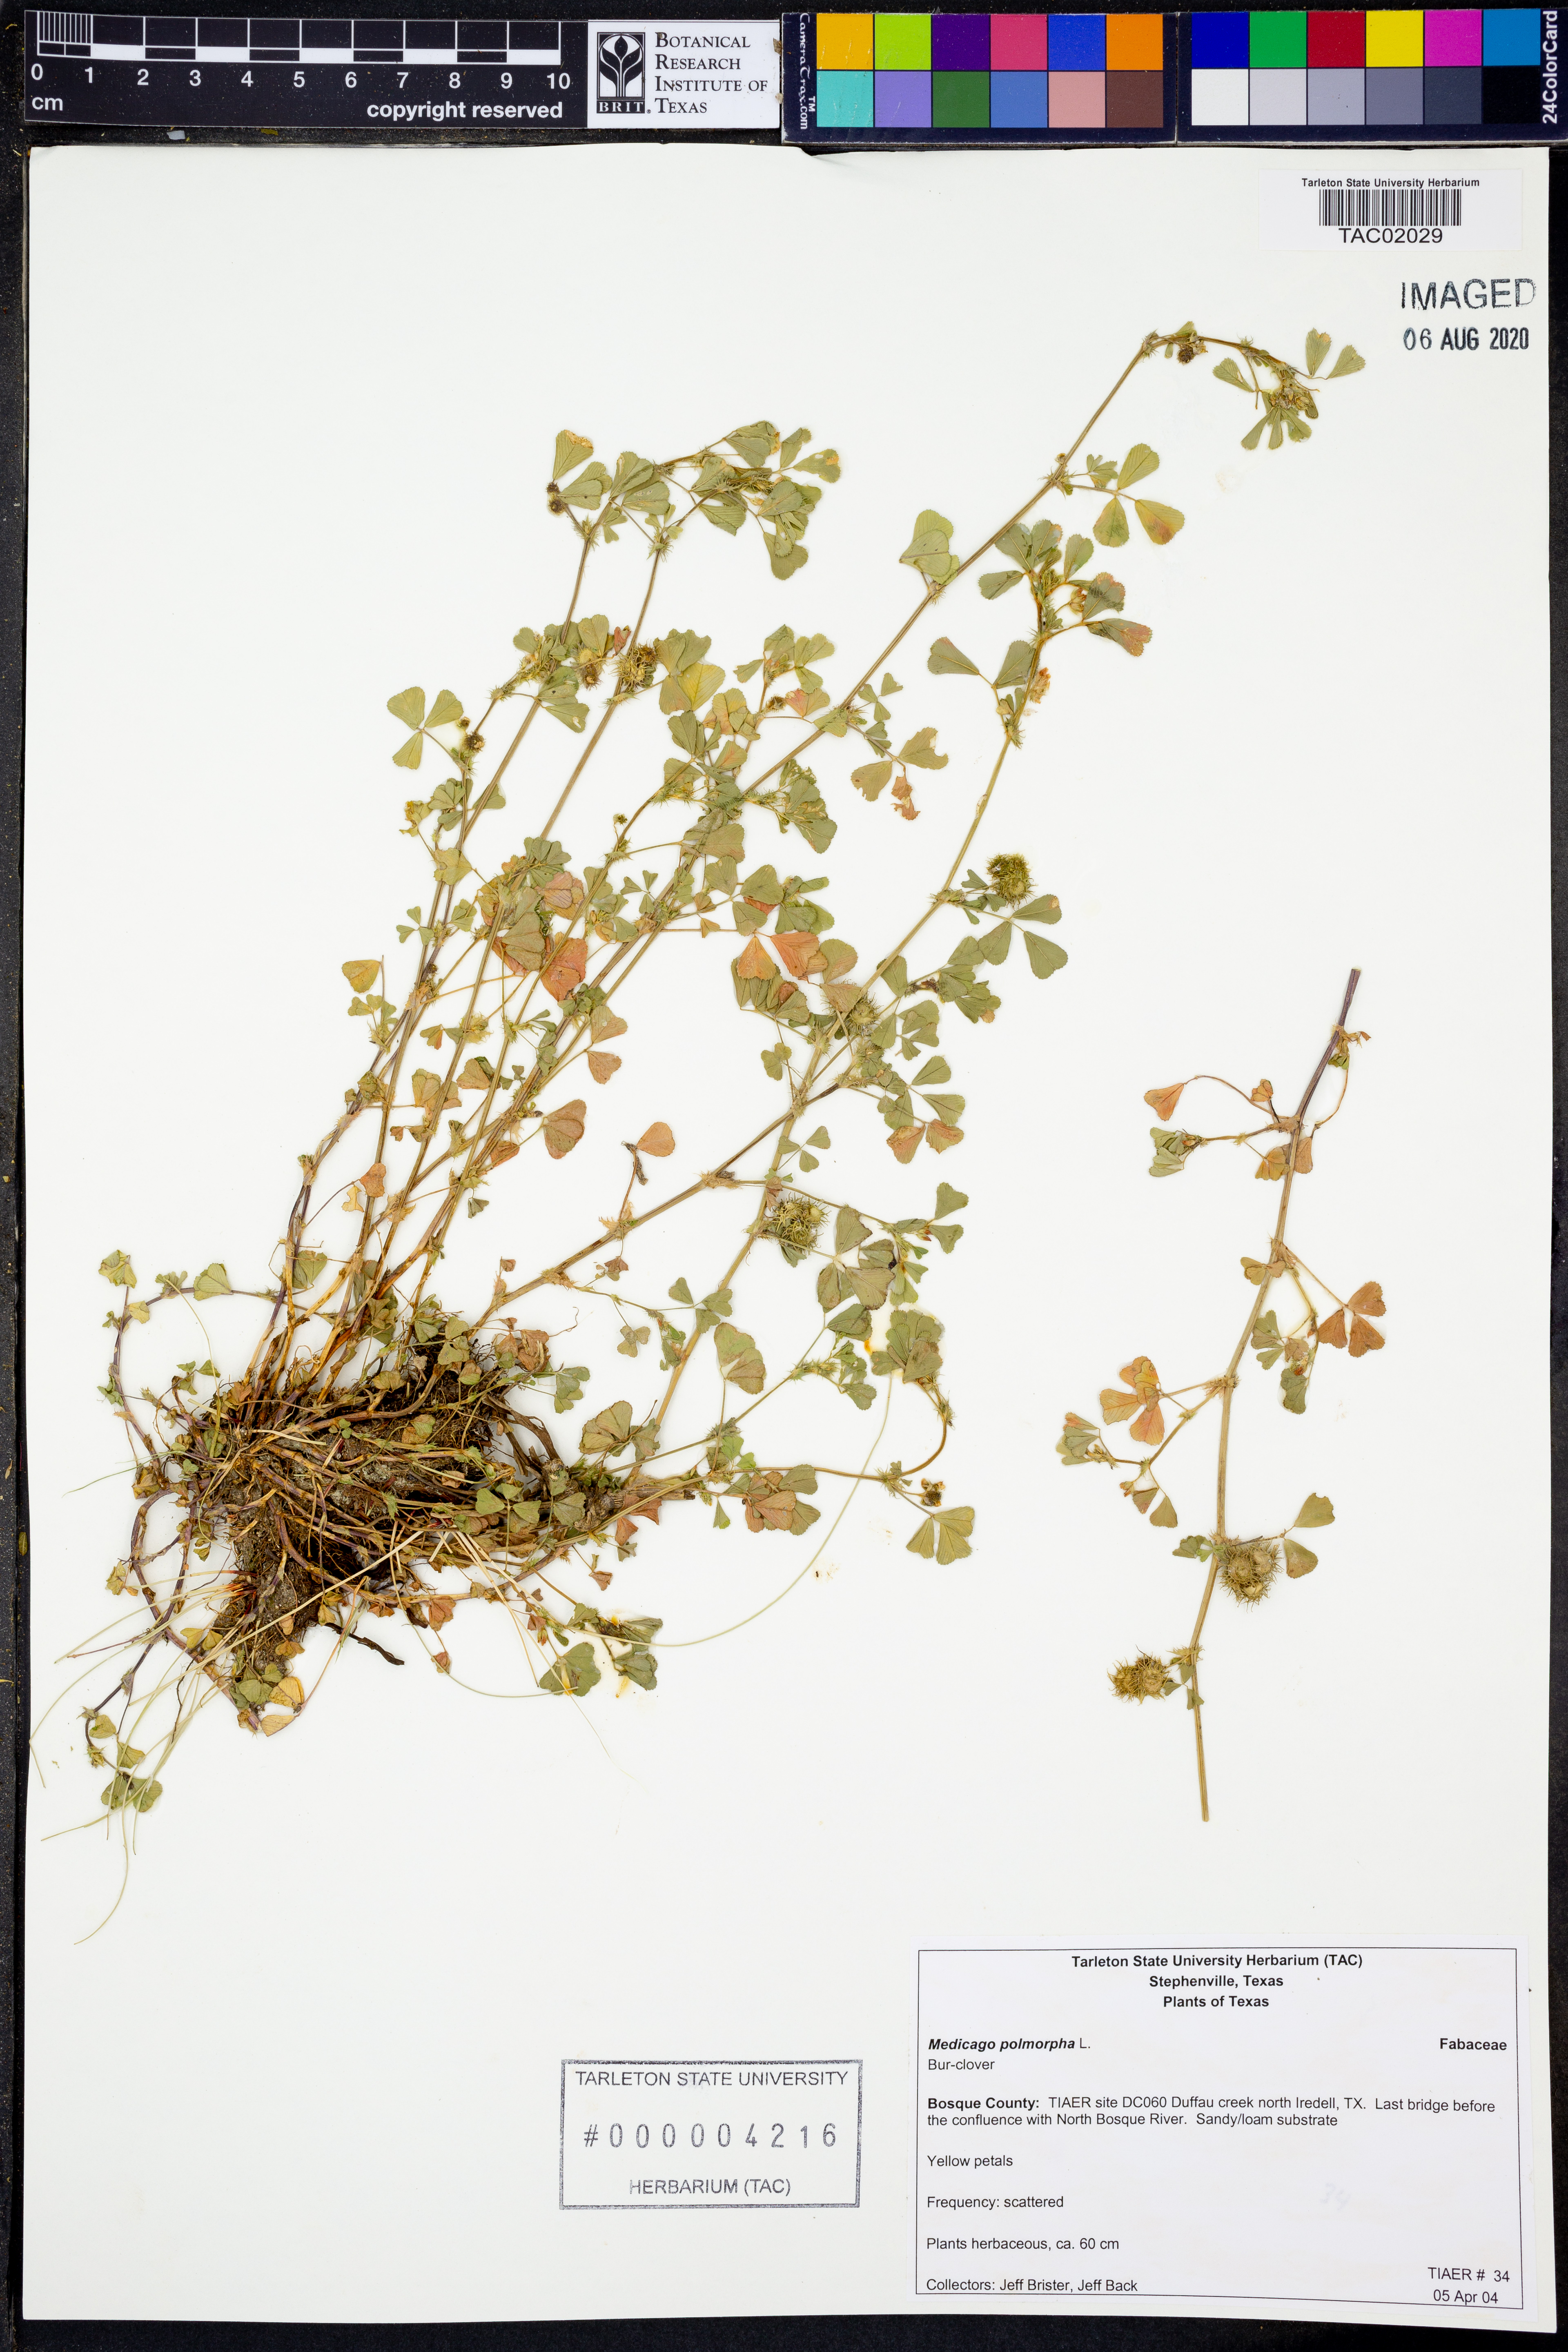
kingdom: Plantae
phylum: Tracheophyta
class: Liliopsida
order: Poales
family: Cyperaceae
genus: Eleocharis
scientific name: Eleocharis montevidensis
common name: Sand spike-rush
